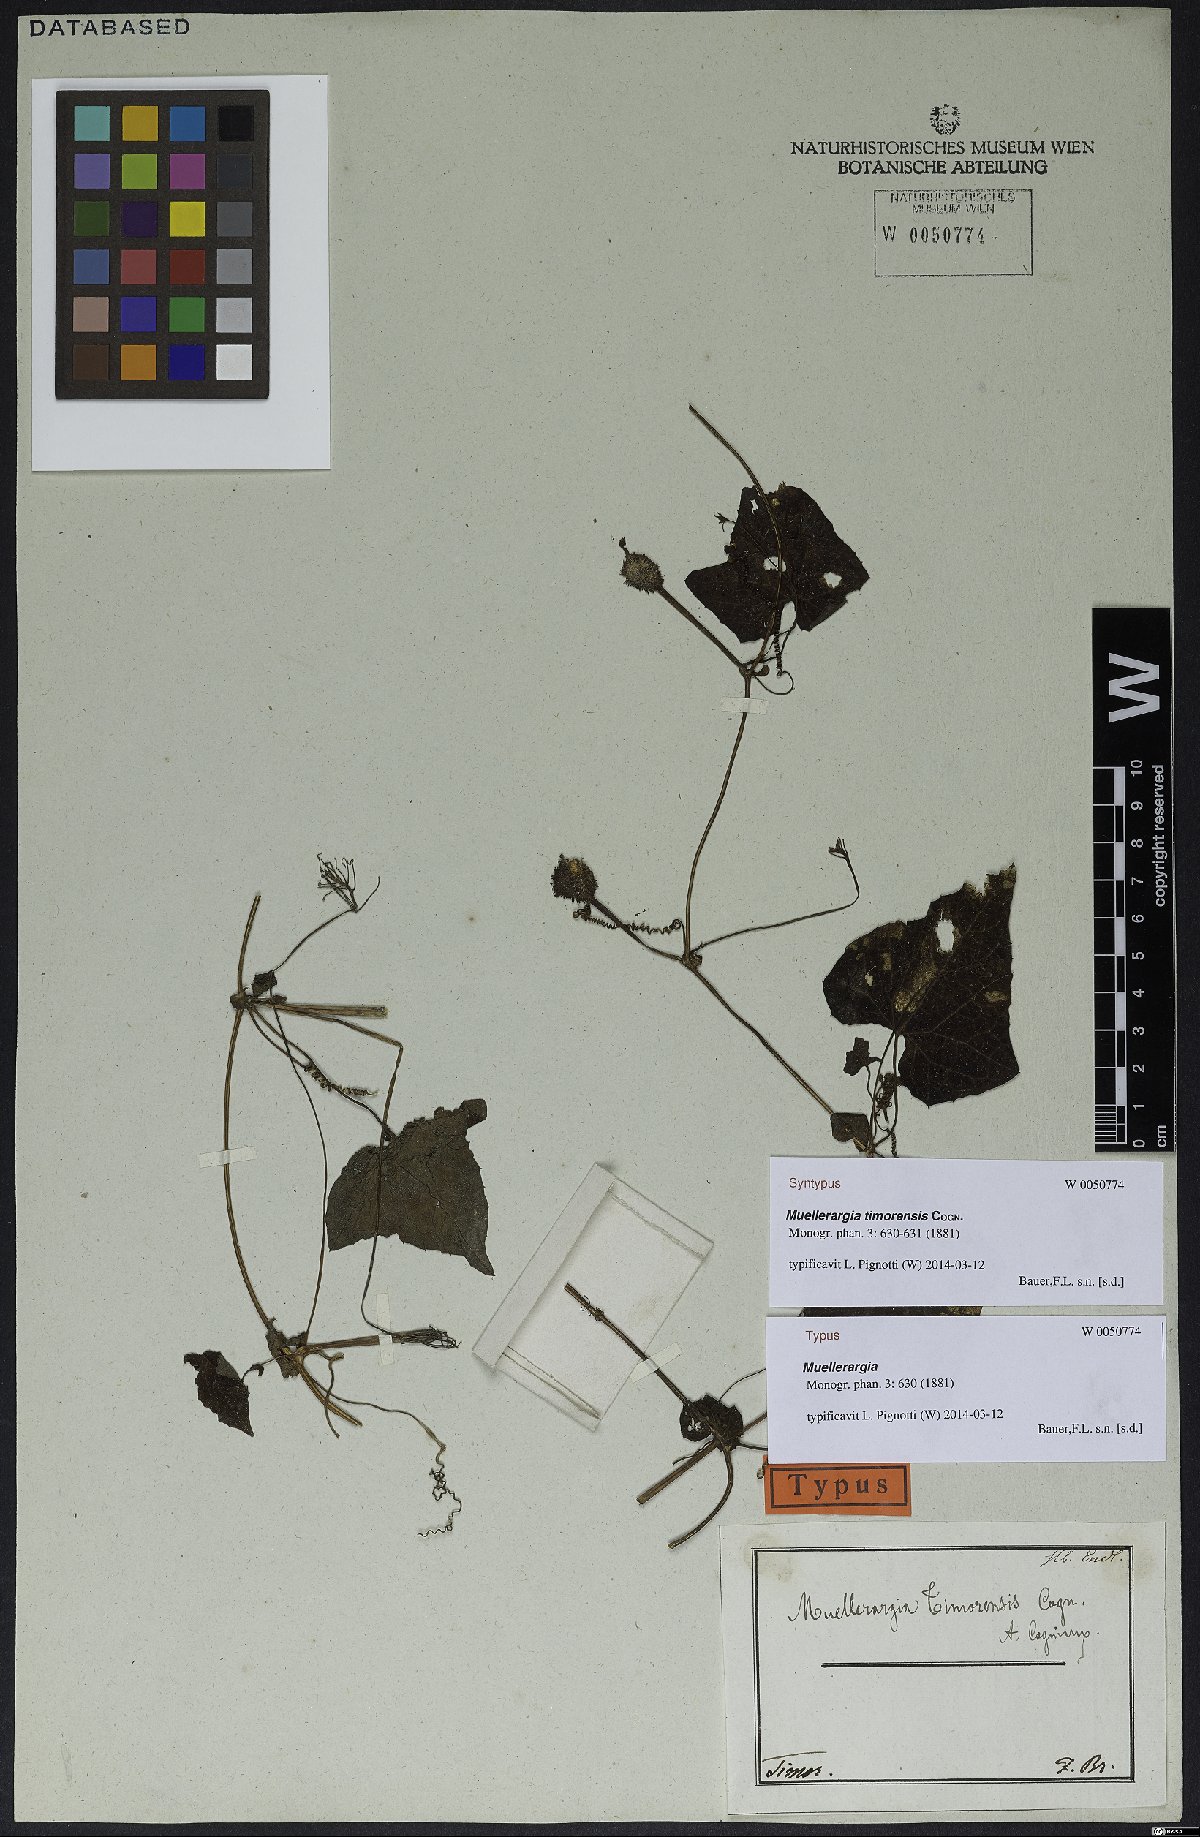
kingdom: Plantae
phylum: Tracheophyta
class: Magnoliopsida
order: Cucurbitales
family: Cucurbitaceae
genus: Muellerargia
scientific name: Muellerargia timorensis
